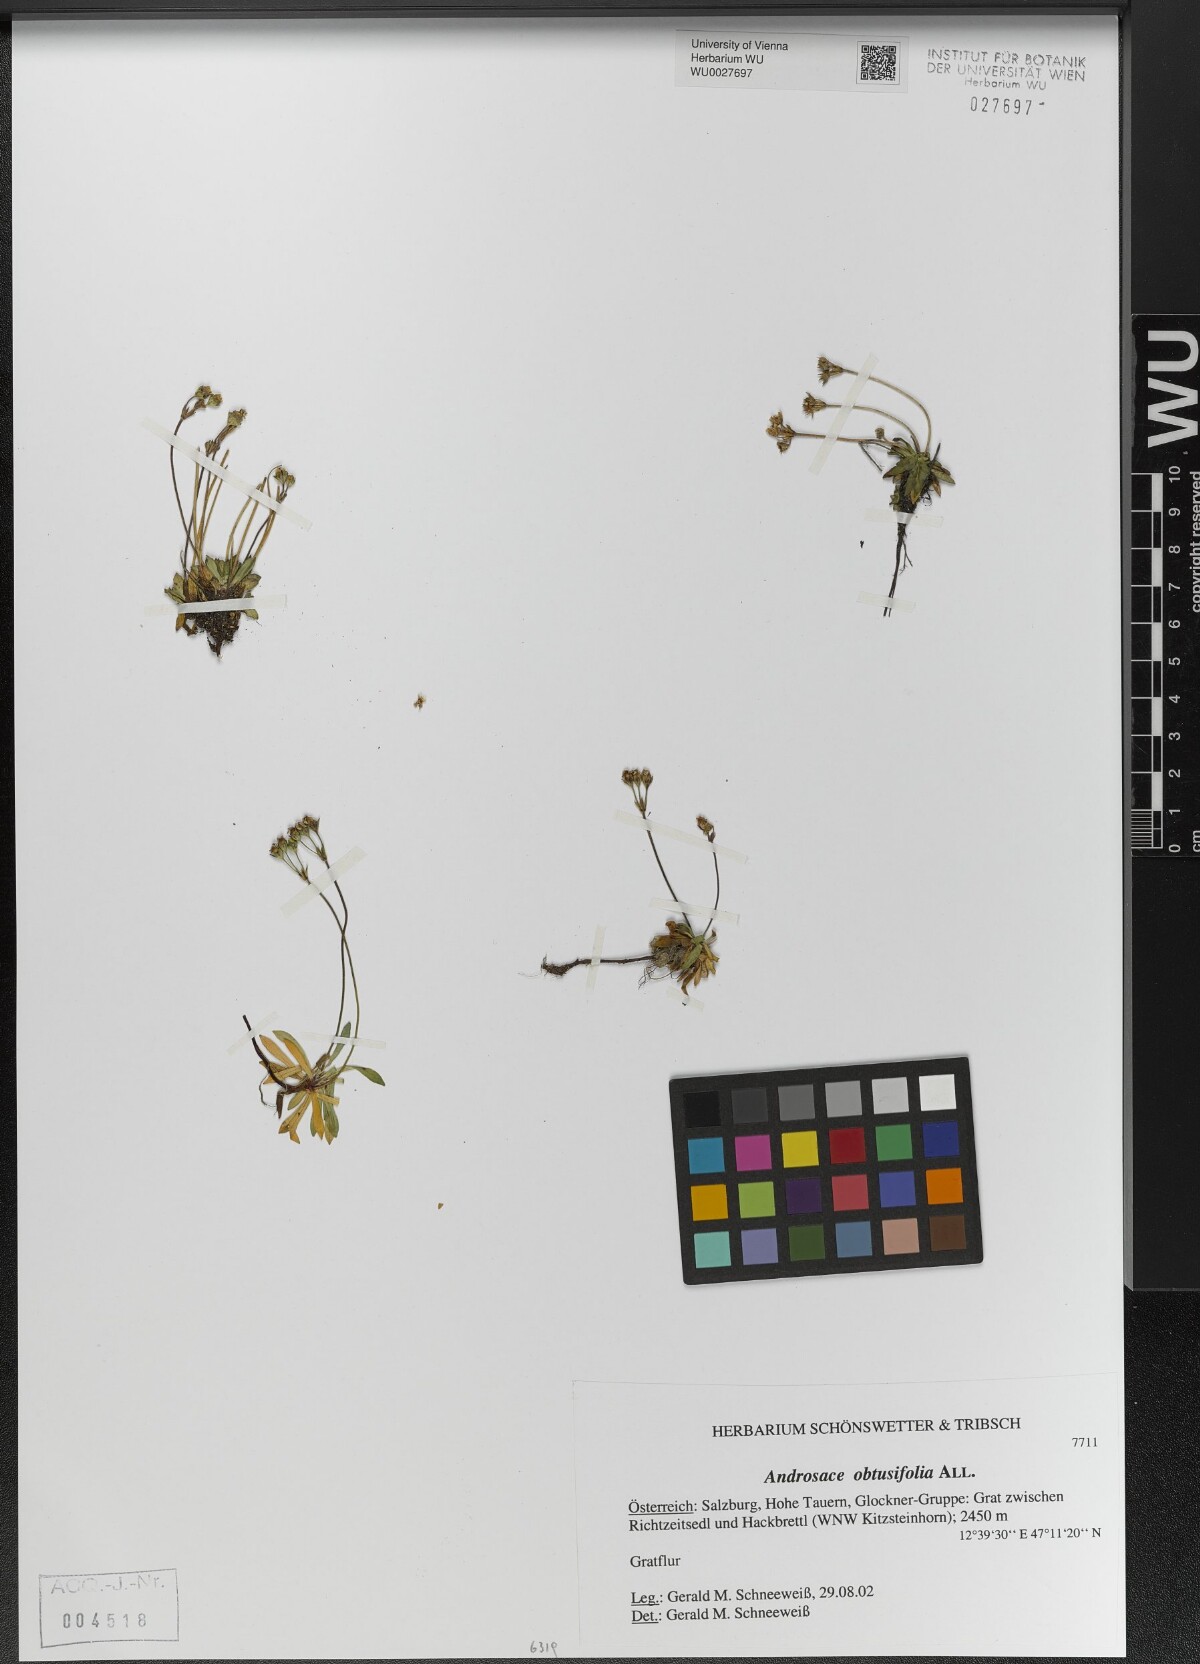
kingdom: Plantae
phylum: Tracheophyta
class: Magnoliopsida
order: Ericales
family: Primulaceae
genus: Androsace
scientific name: Androsace obtusifolia
